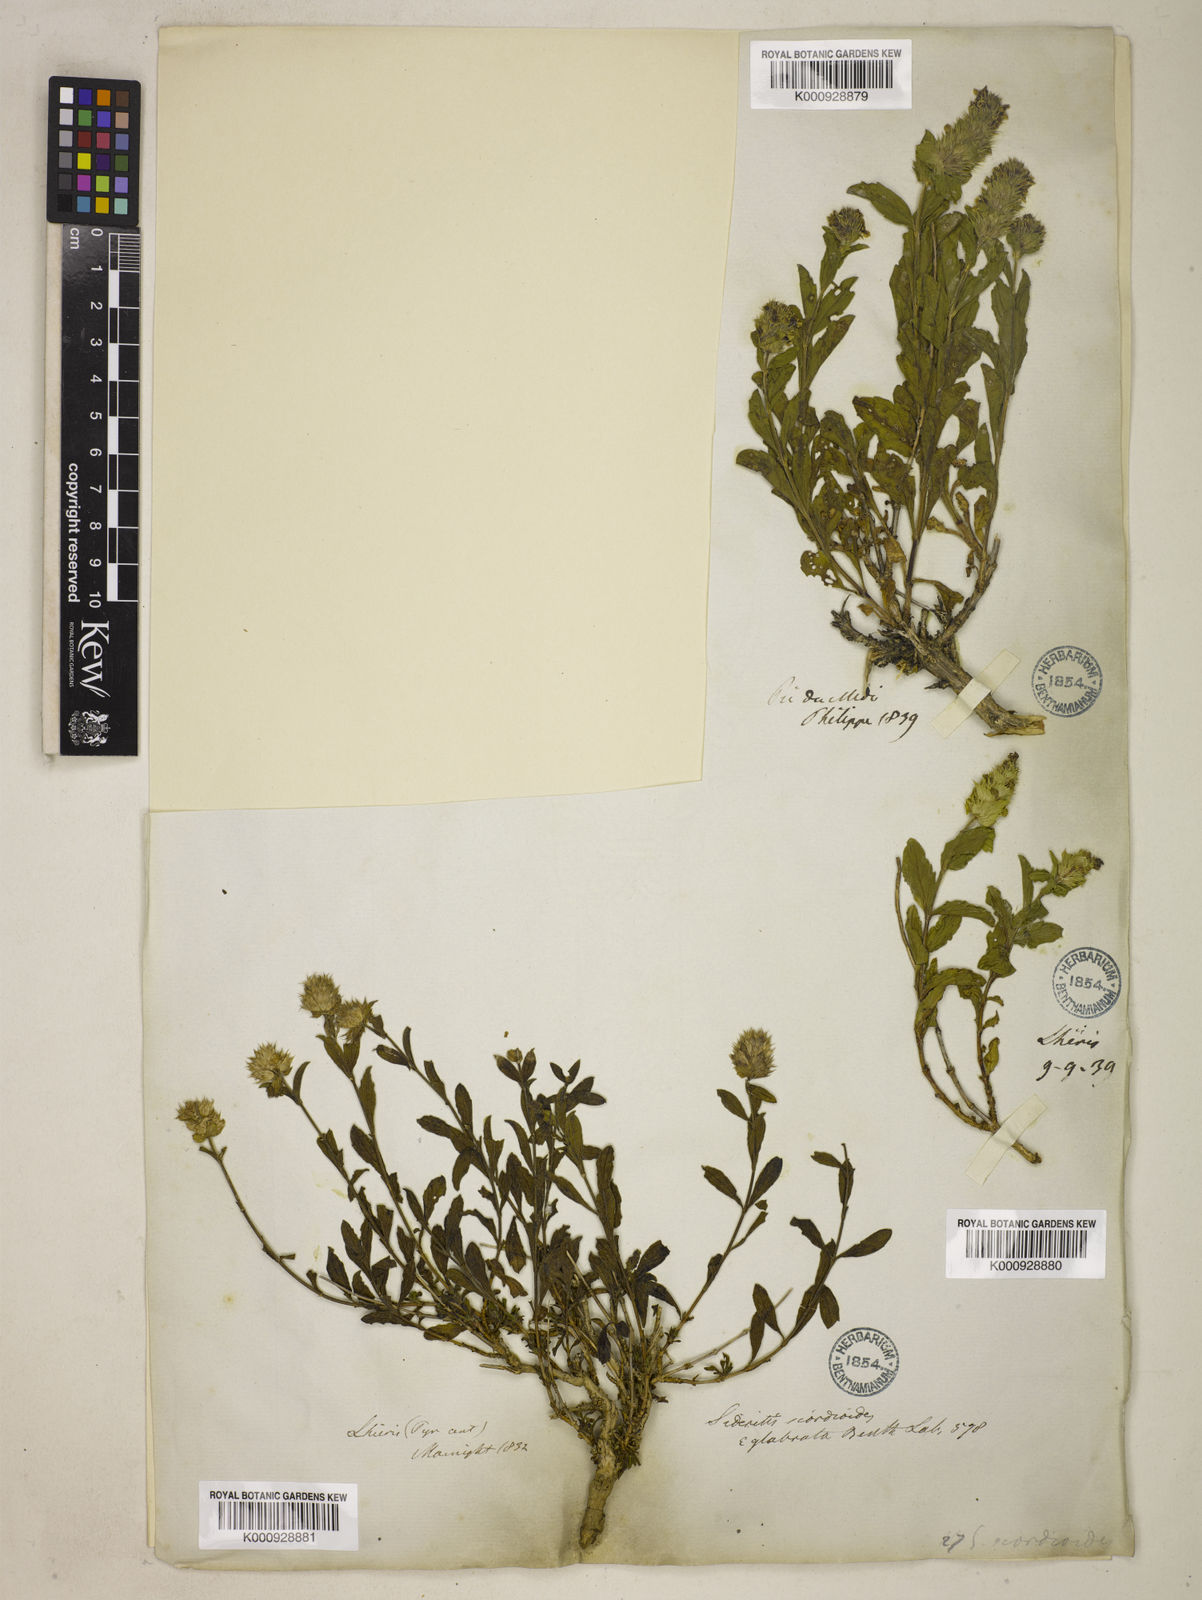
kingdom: Plantae
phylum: Tracheophyta
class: Magnoliopsida
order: Lamiales
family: Lamiaceae
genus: Sideritis
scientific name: Sideritis hyssopifolia
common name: Mountain tea
